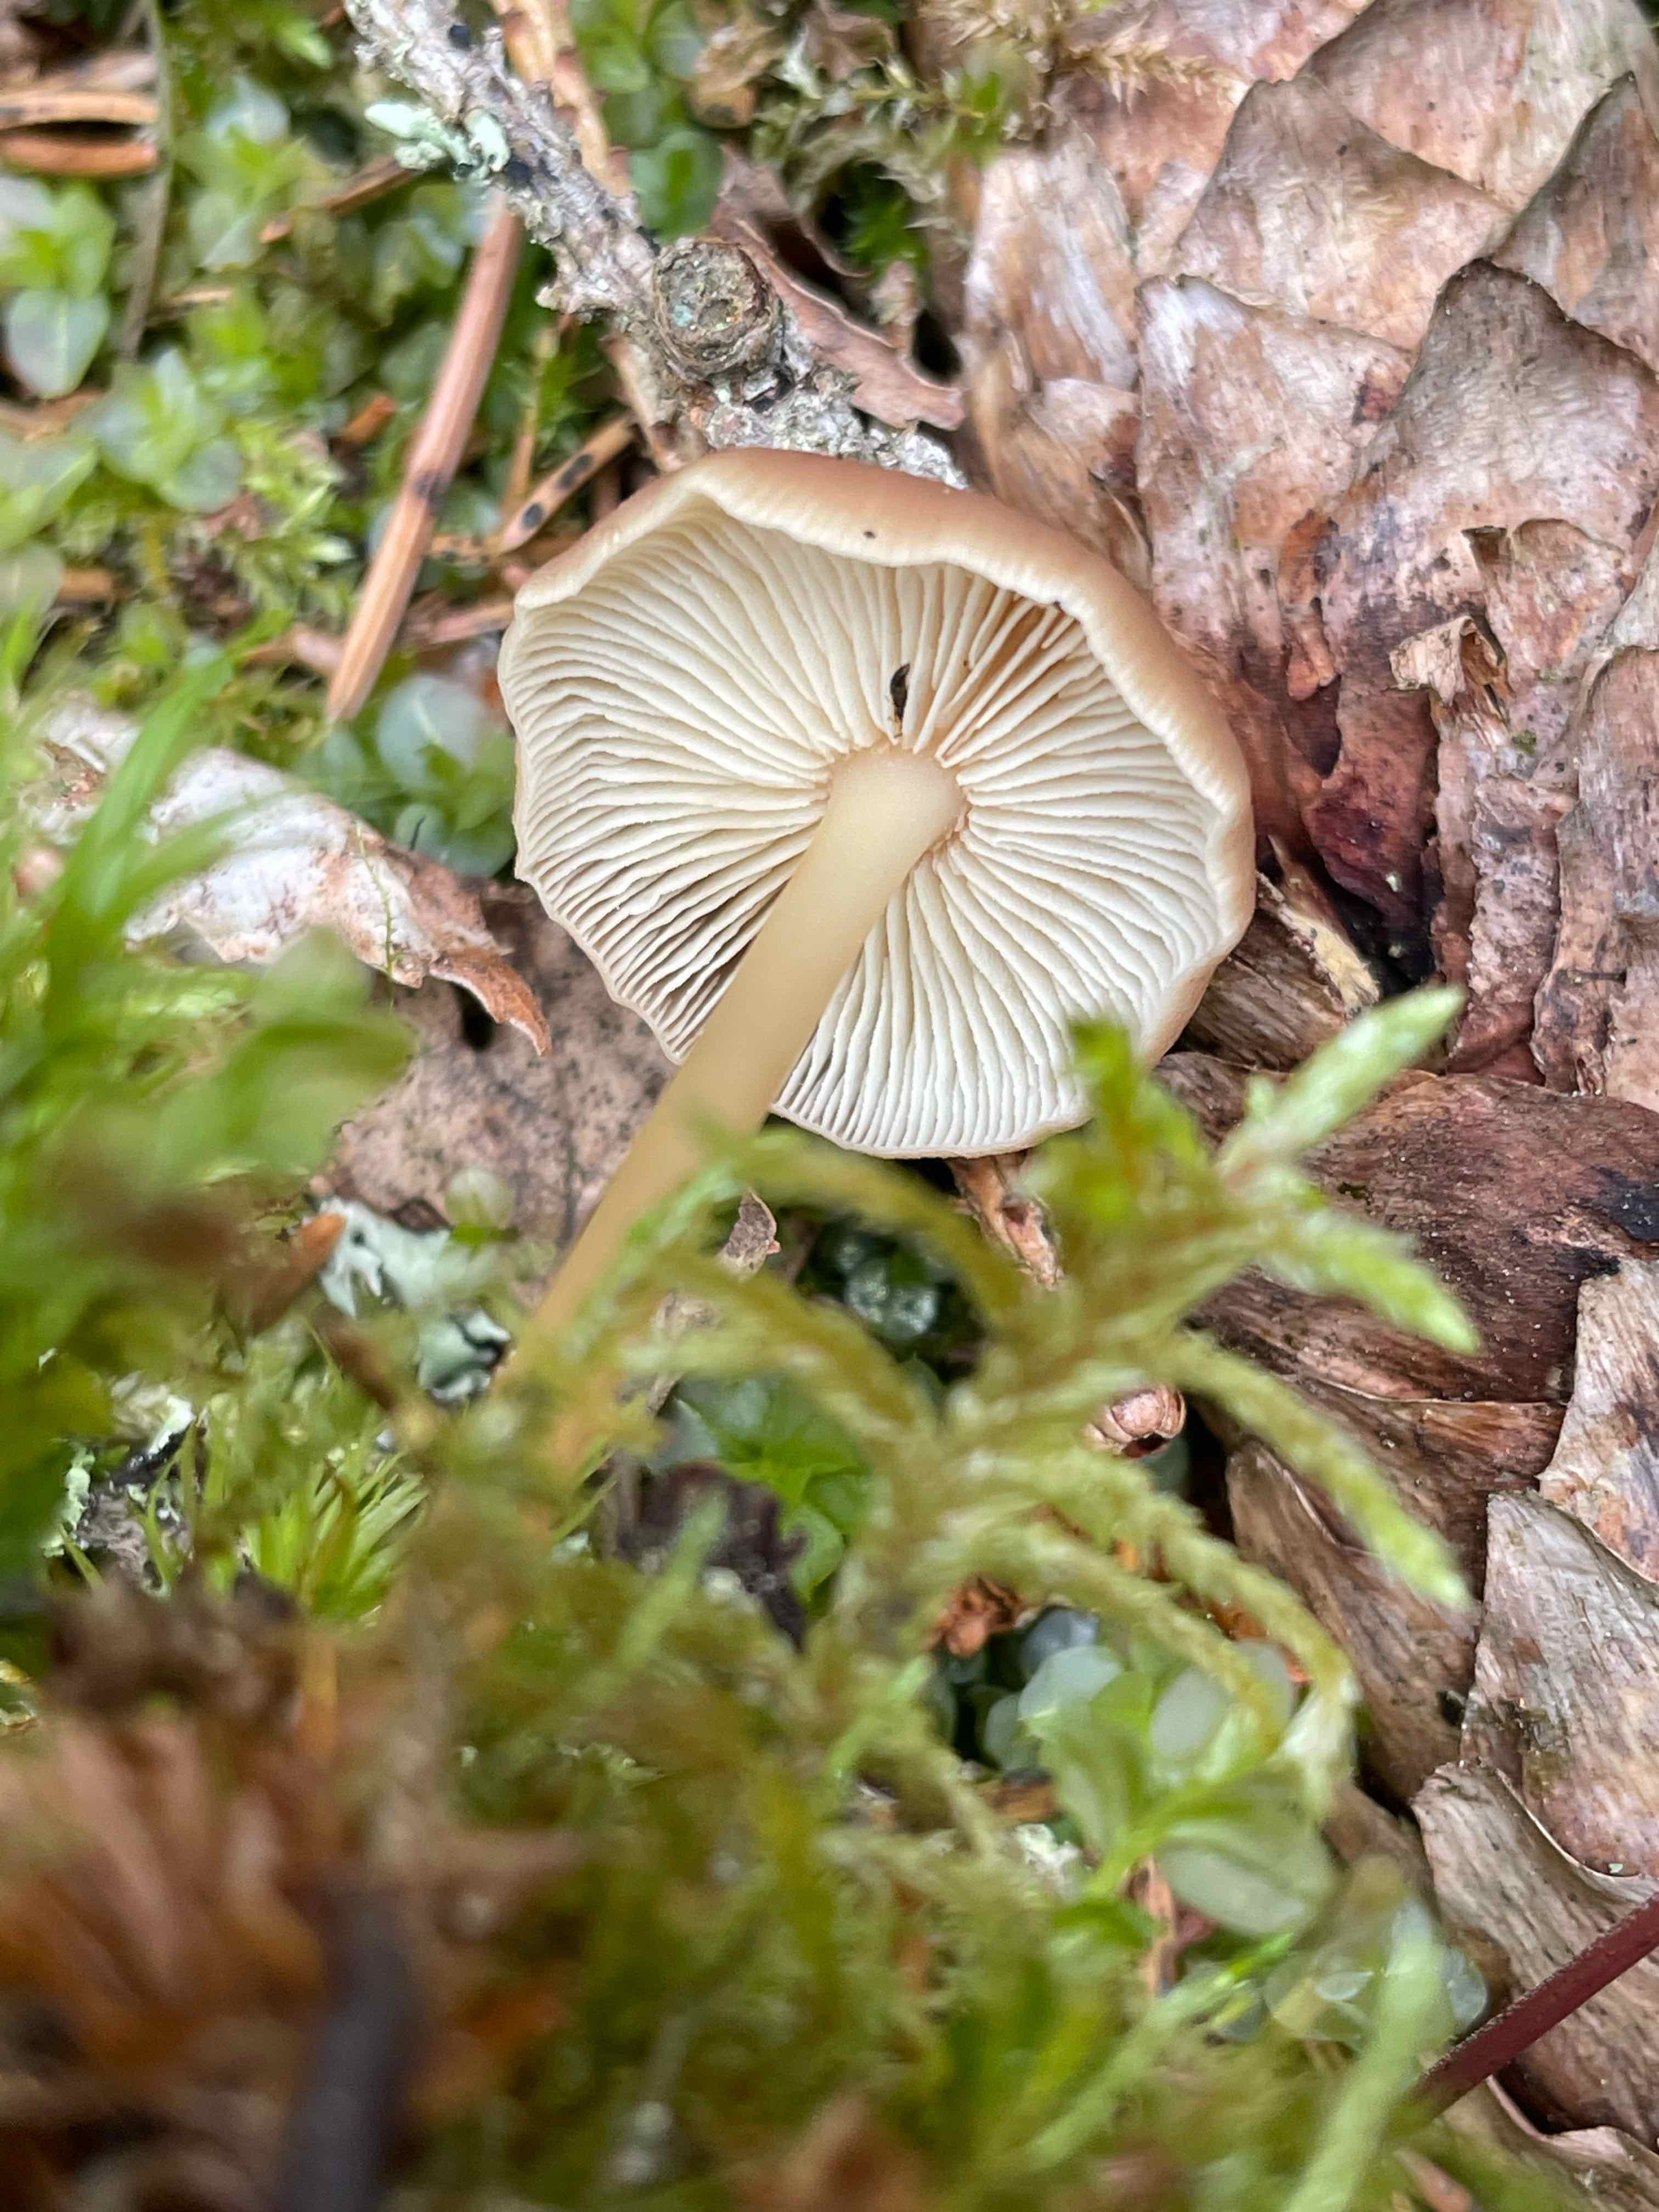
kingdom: Fungi
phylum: Basidiomycota
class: Agaricomycetes
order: Agaricales
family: Omphalotaceae
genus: Gymnopus
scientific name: Gymnopus ocior
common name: mørk fladhat
